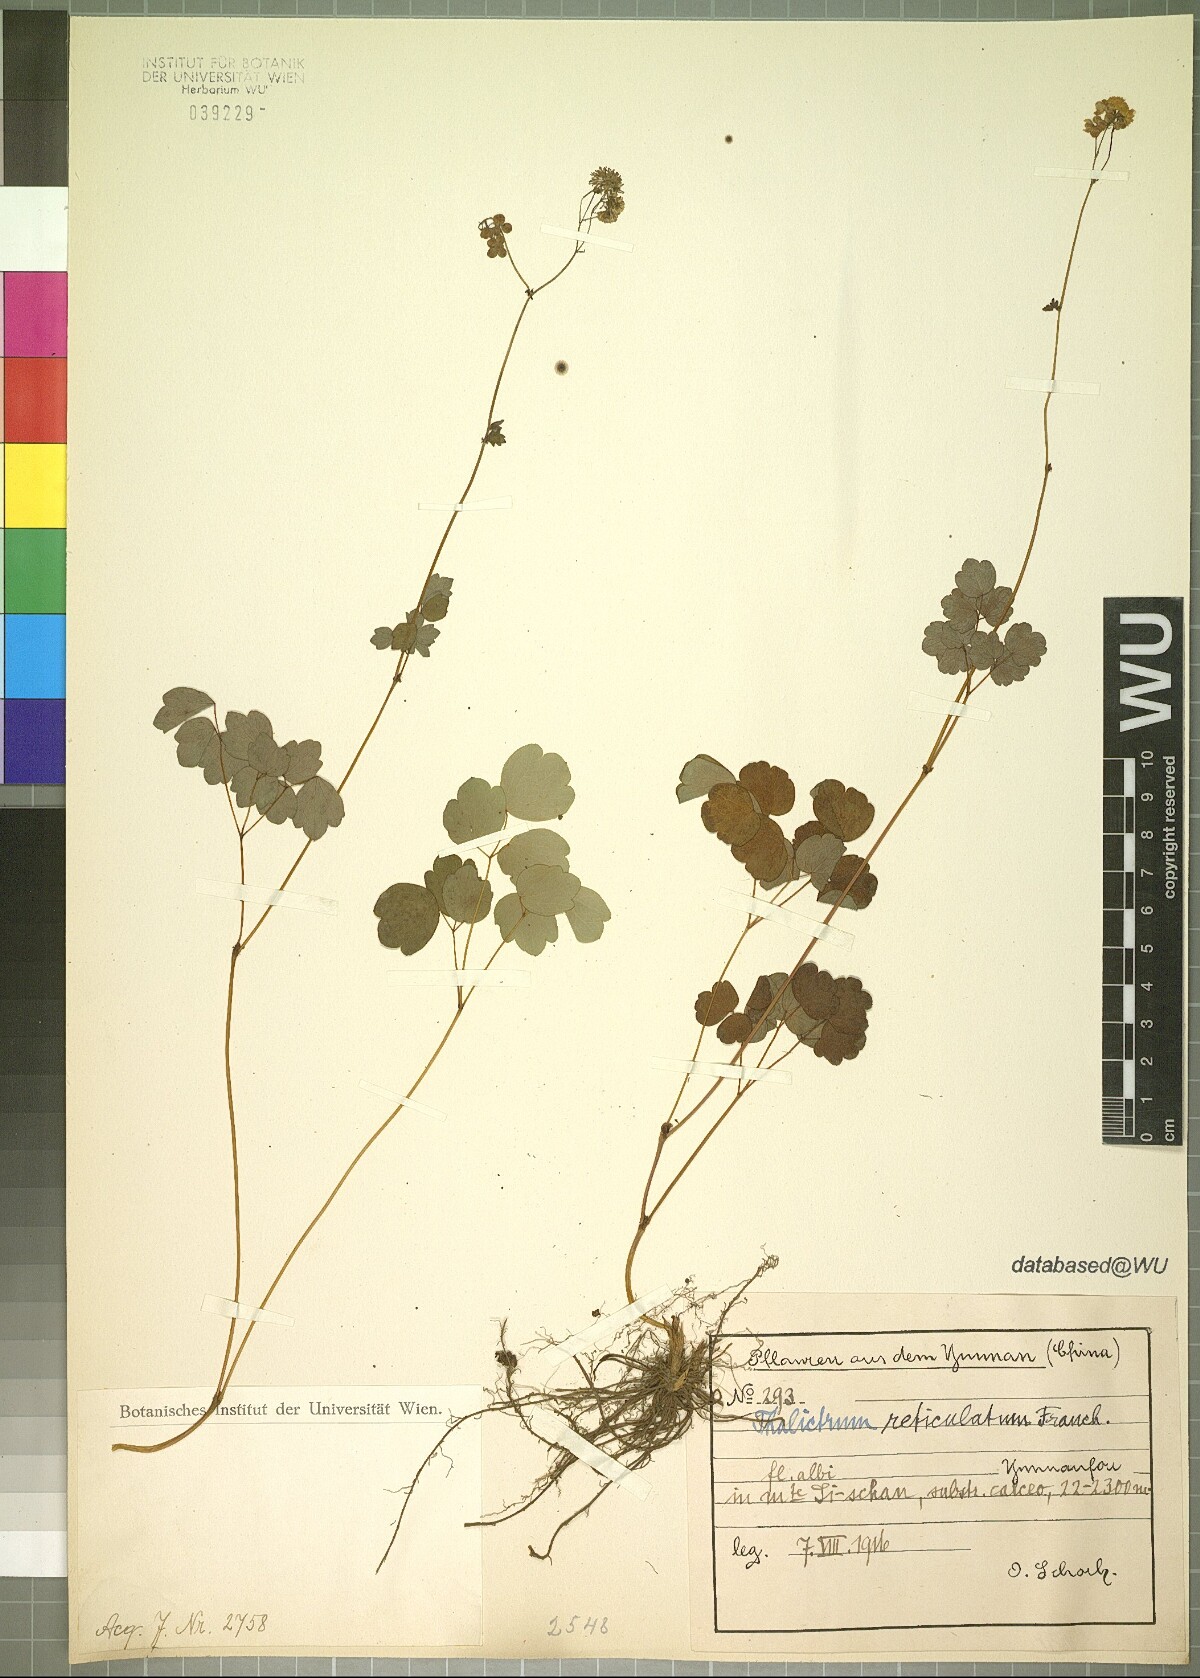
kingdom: Plantae
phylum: Tracheophyta
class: Magnoliopsida
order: Ranunculales
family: Ranunculaceae
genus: Thalictrum
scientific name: Thalictrum reticulatum
